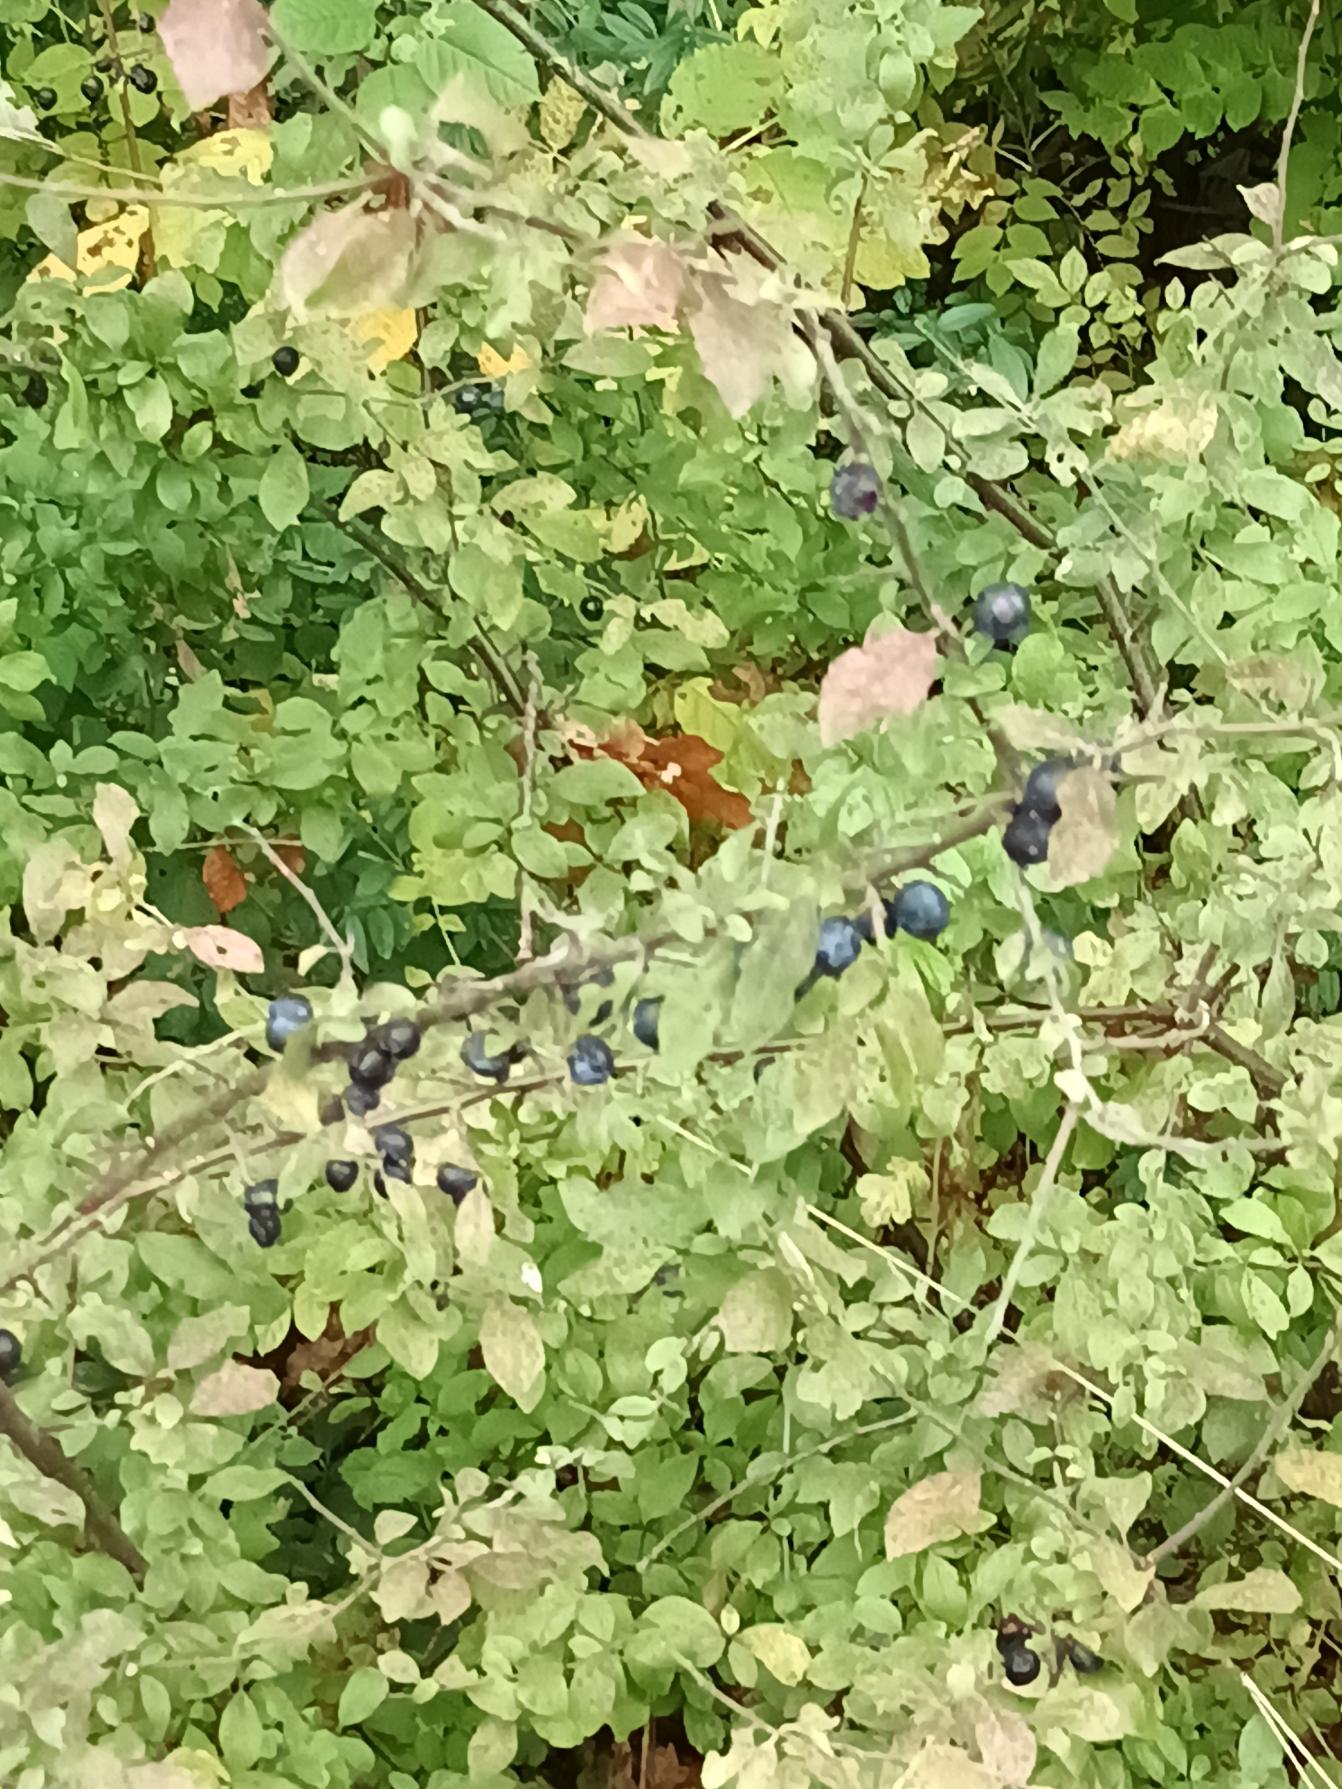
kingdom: Plantae
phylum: Tracheophyta
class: Magnoliopsida
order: Rosales
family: Rosaceae
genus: Prunus
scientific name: Prunus spinosa
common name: Slåen
